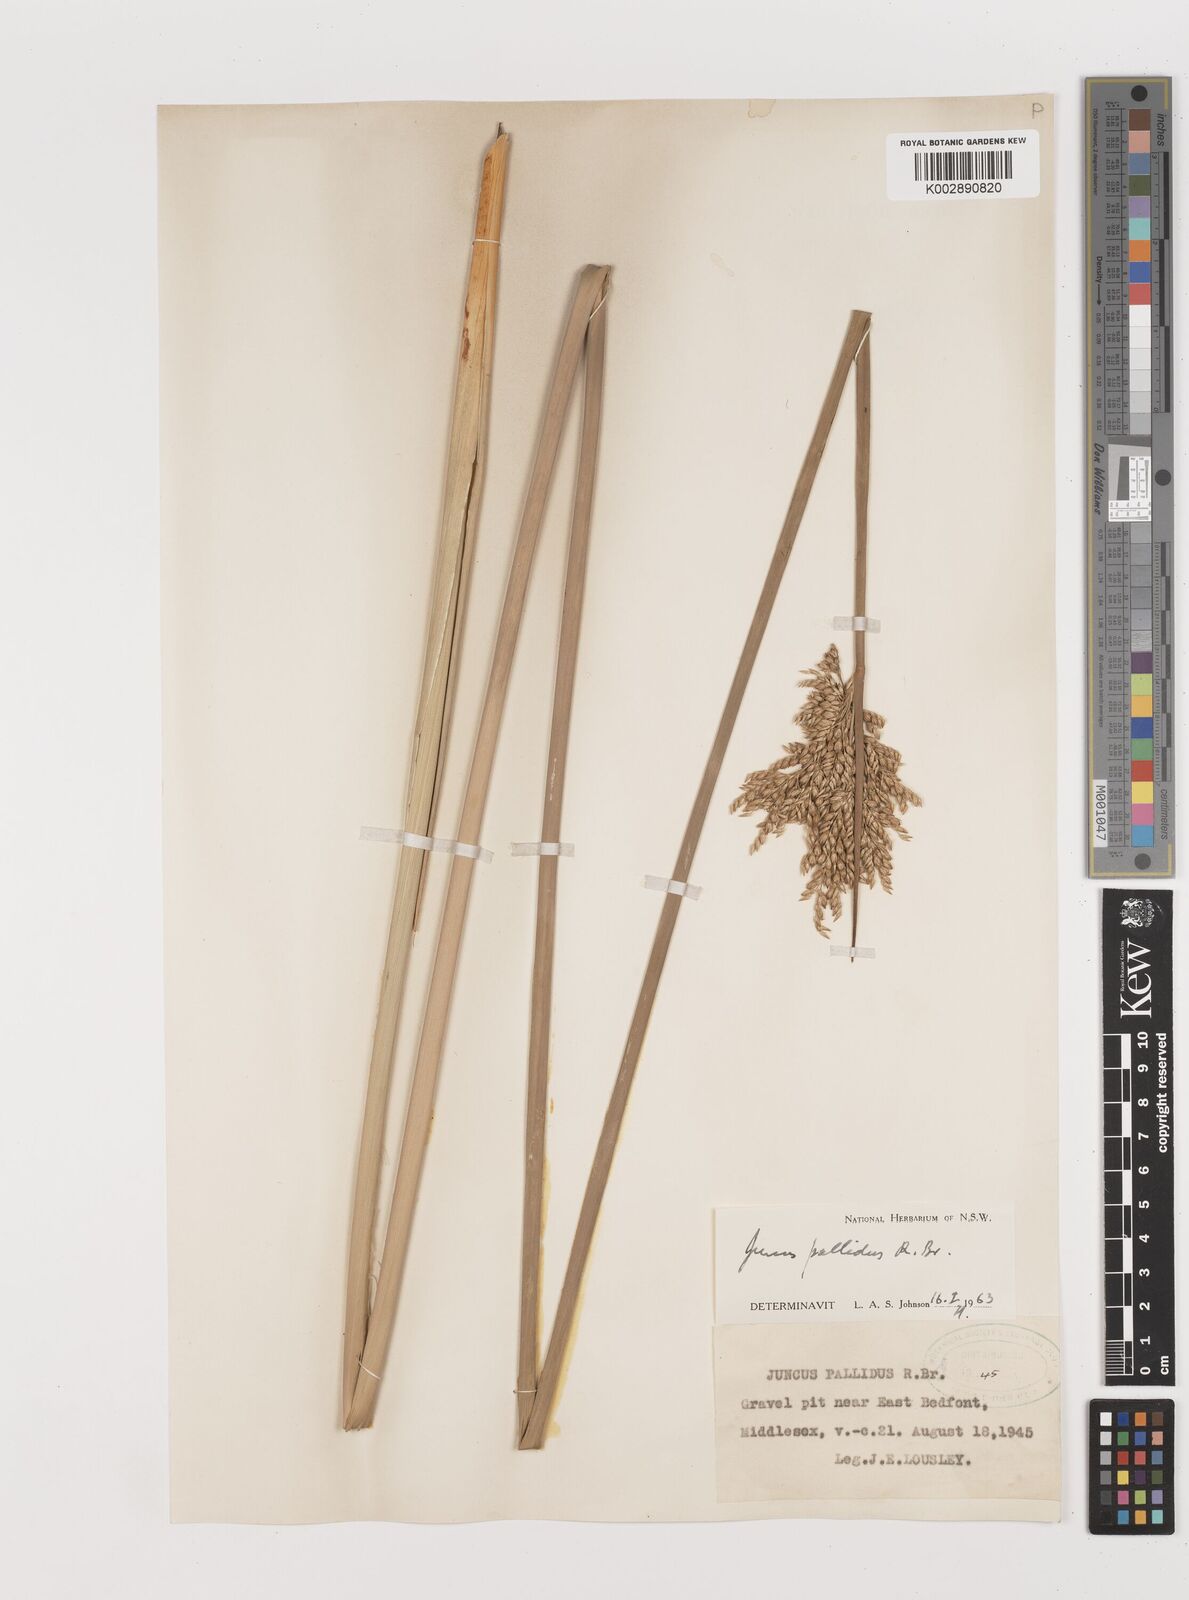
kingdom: Plantae
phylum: Tracheophyta
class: Liliopsida
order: Poales
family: Juncaceae
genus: Juncus
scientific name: Juncus pallidus
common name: Great soft-rush
